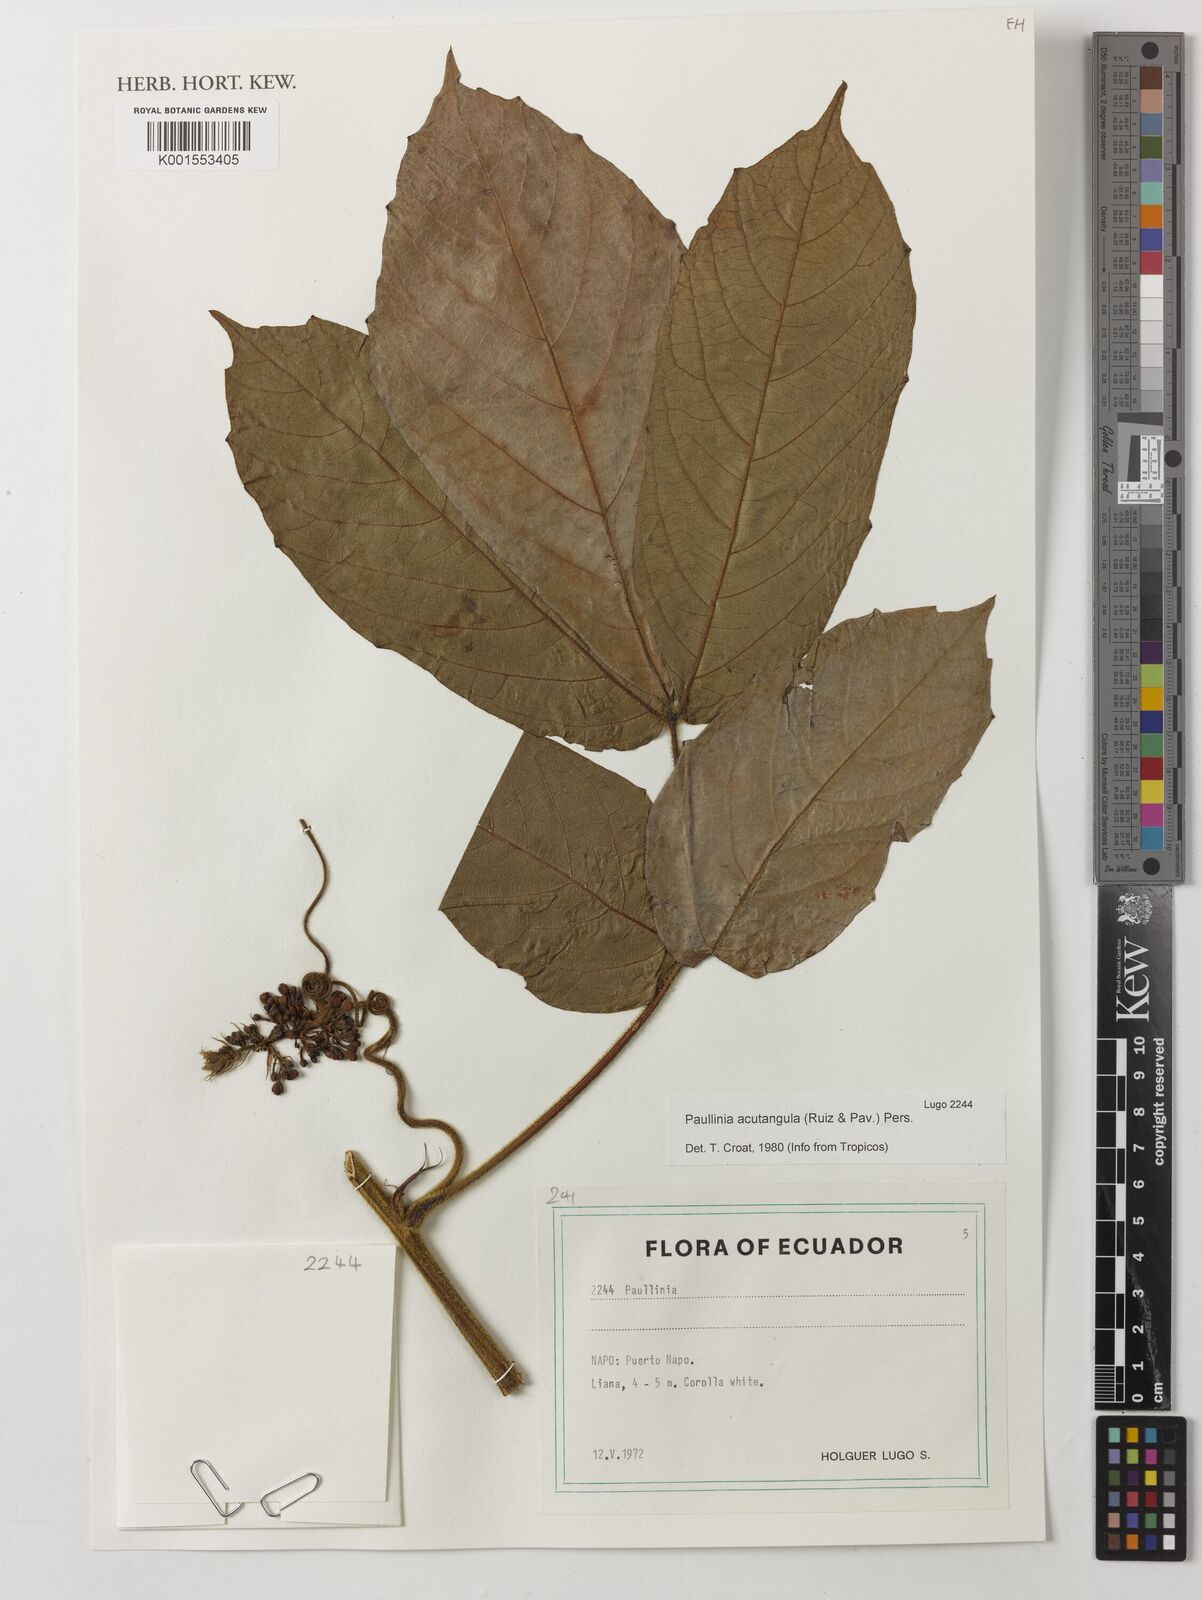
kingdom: Plantae
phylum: Tracheophyta
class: Magnoliopsida
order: Sapindales
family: Sapindaceae
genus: Paullinia
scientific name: Paullinia acutangula
